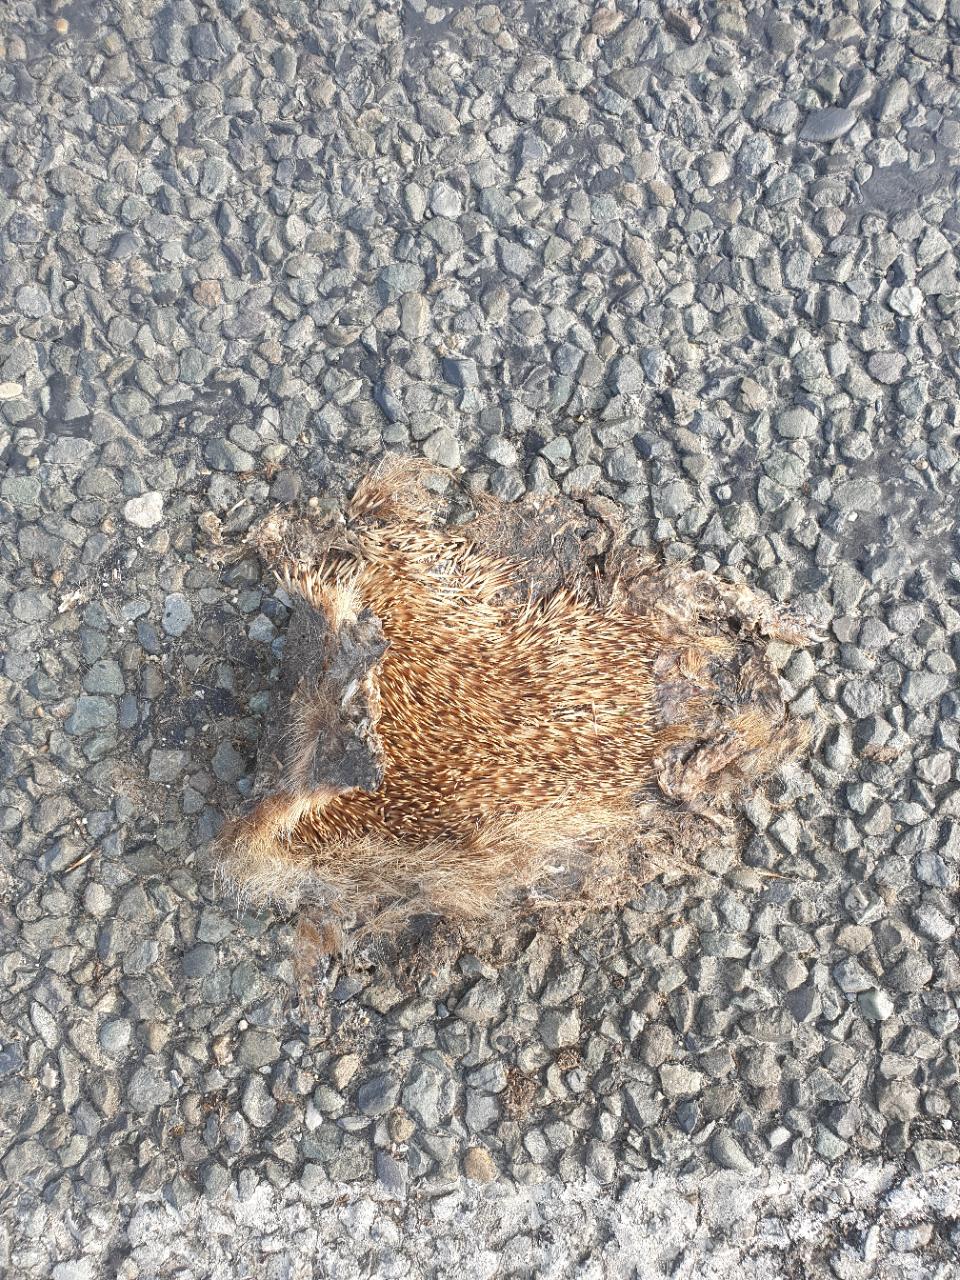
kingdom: Animalia
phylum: Chordata
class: Mammalia
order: Erinaceomorpha
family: Erinaceidae
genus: Erinaceus
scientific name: Erinaceus
